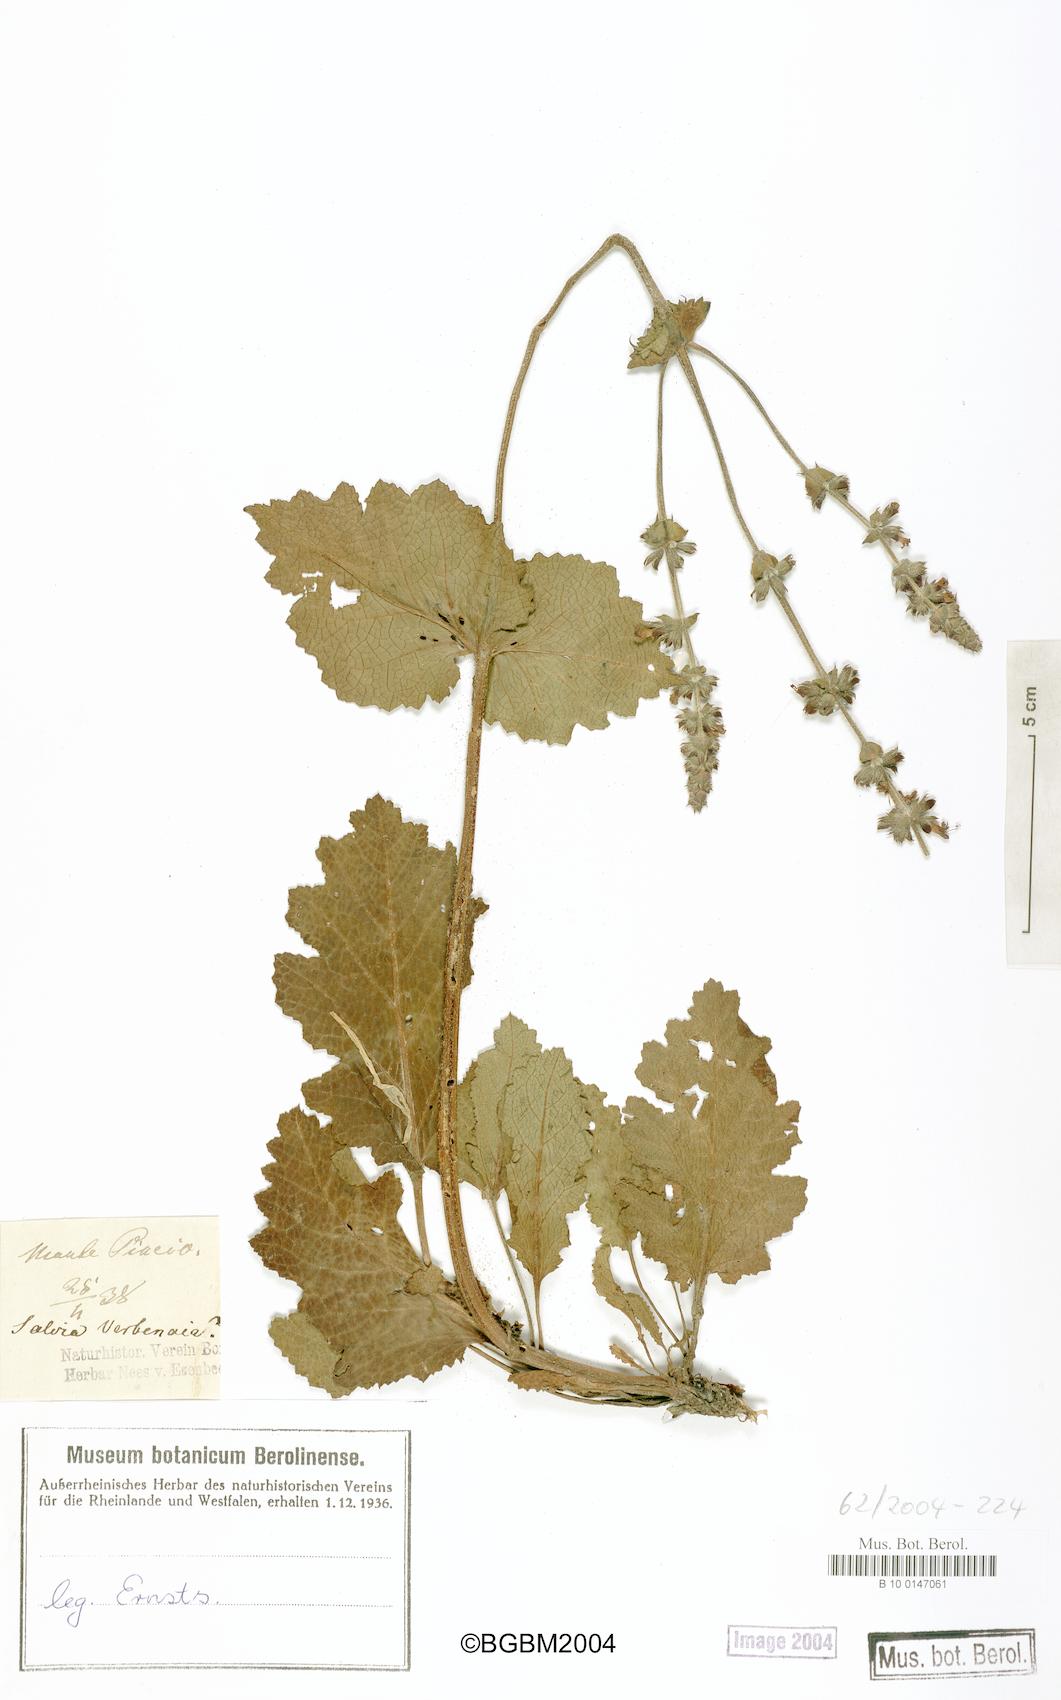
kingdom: Plantae
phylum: Tracheophyta
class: Magnoliopsida
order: Lamiales
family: Lamiaceae
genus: Salvia
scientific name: Salvia verbenaca
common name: Wild clary
